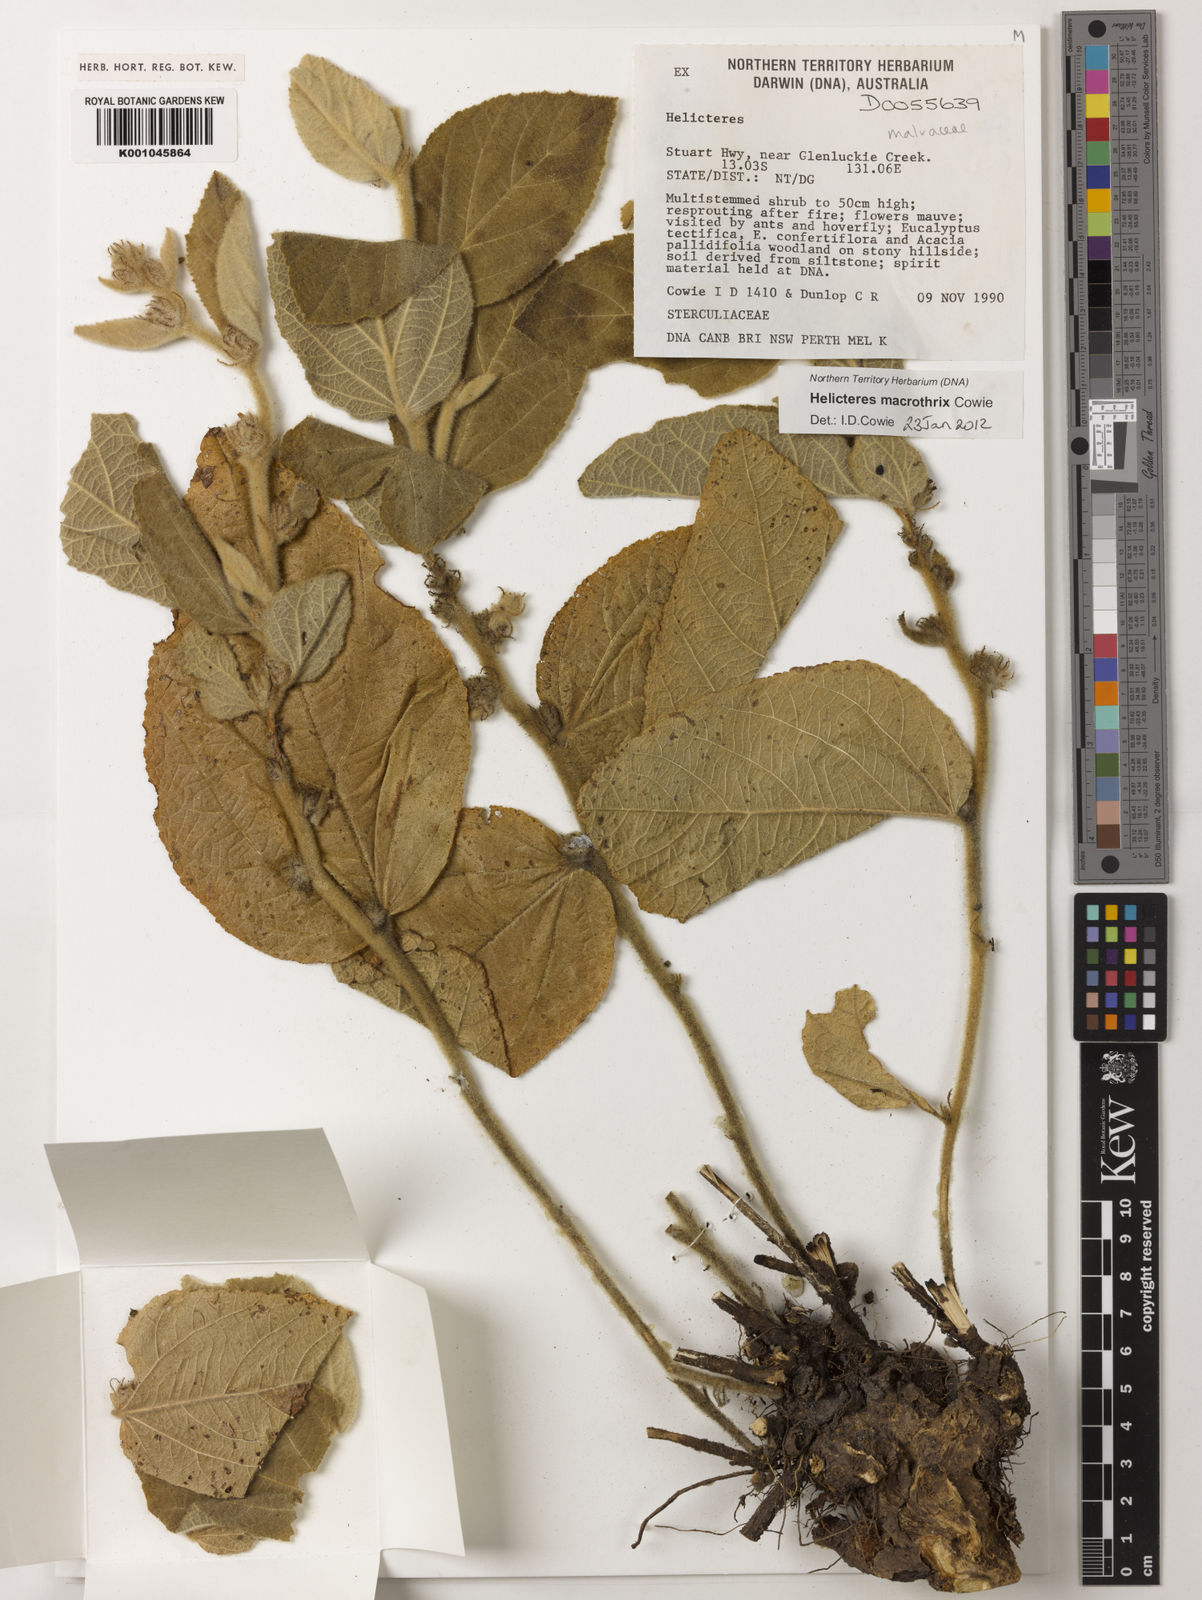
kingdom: Plantae
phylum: Tracheophyta
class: Magnoliopsida
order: Malvales
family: Malvaceae
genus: Helicteres
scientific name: Helicteres macrothrix
